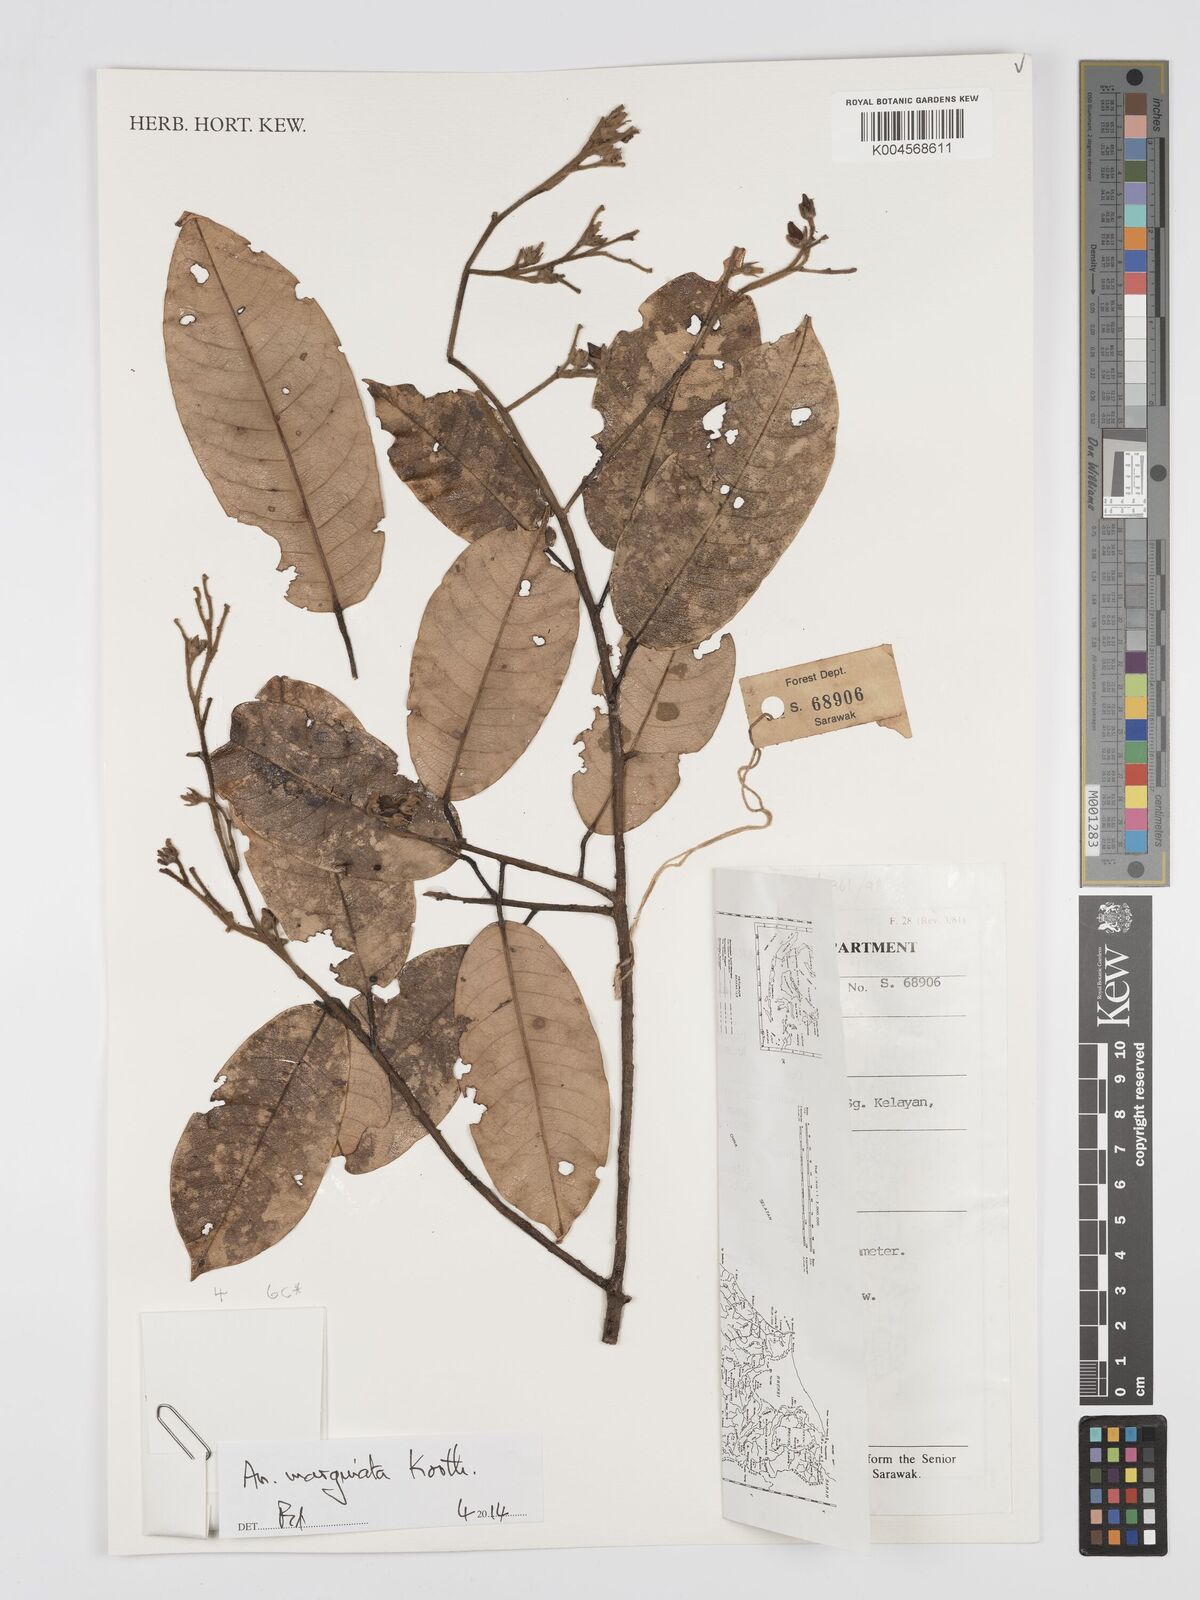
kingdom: Plantae
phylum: Tracheophyta
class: Magnoliopsida
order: Malvales
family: Dipterocarpaceae
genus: Anisoptera
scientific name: Anisoptera marginata
